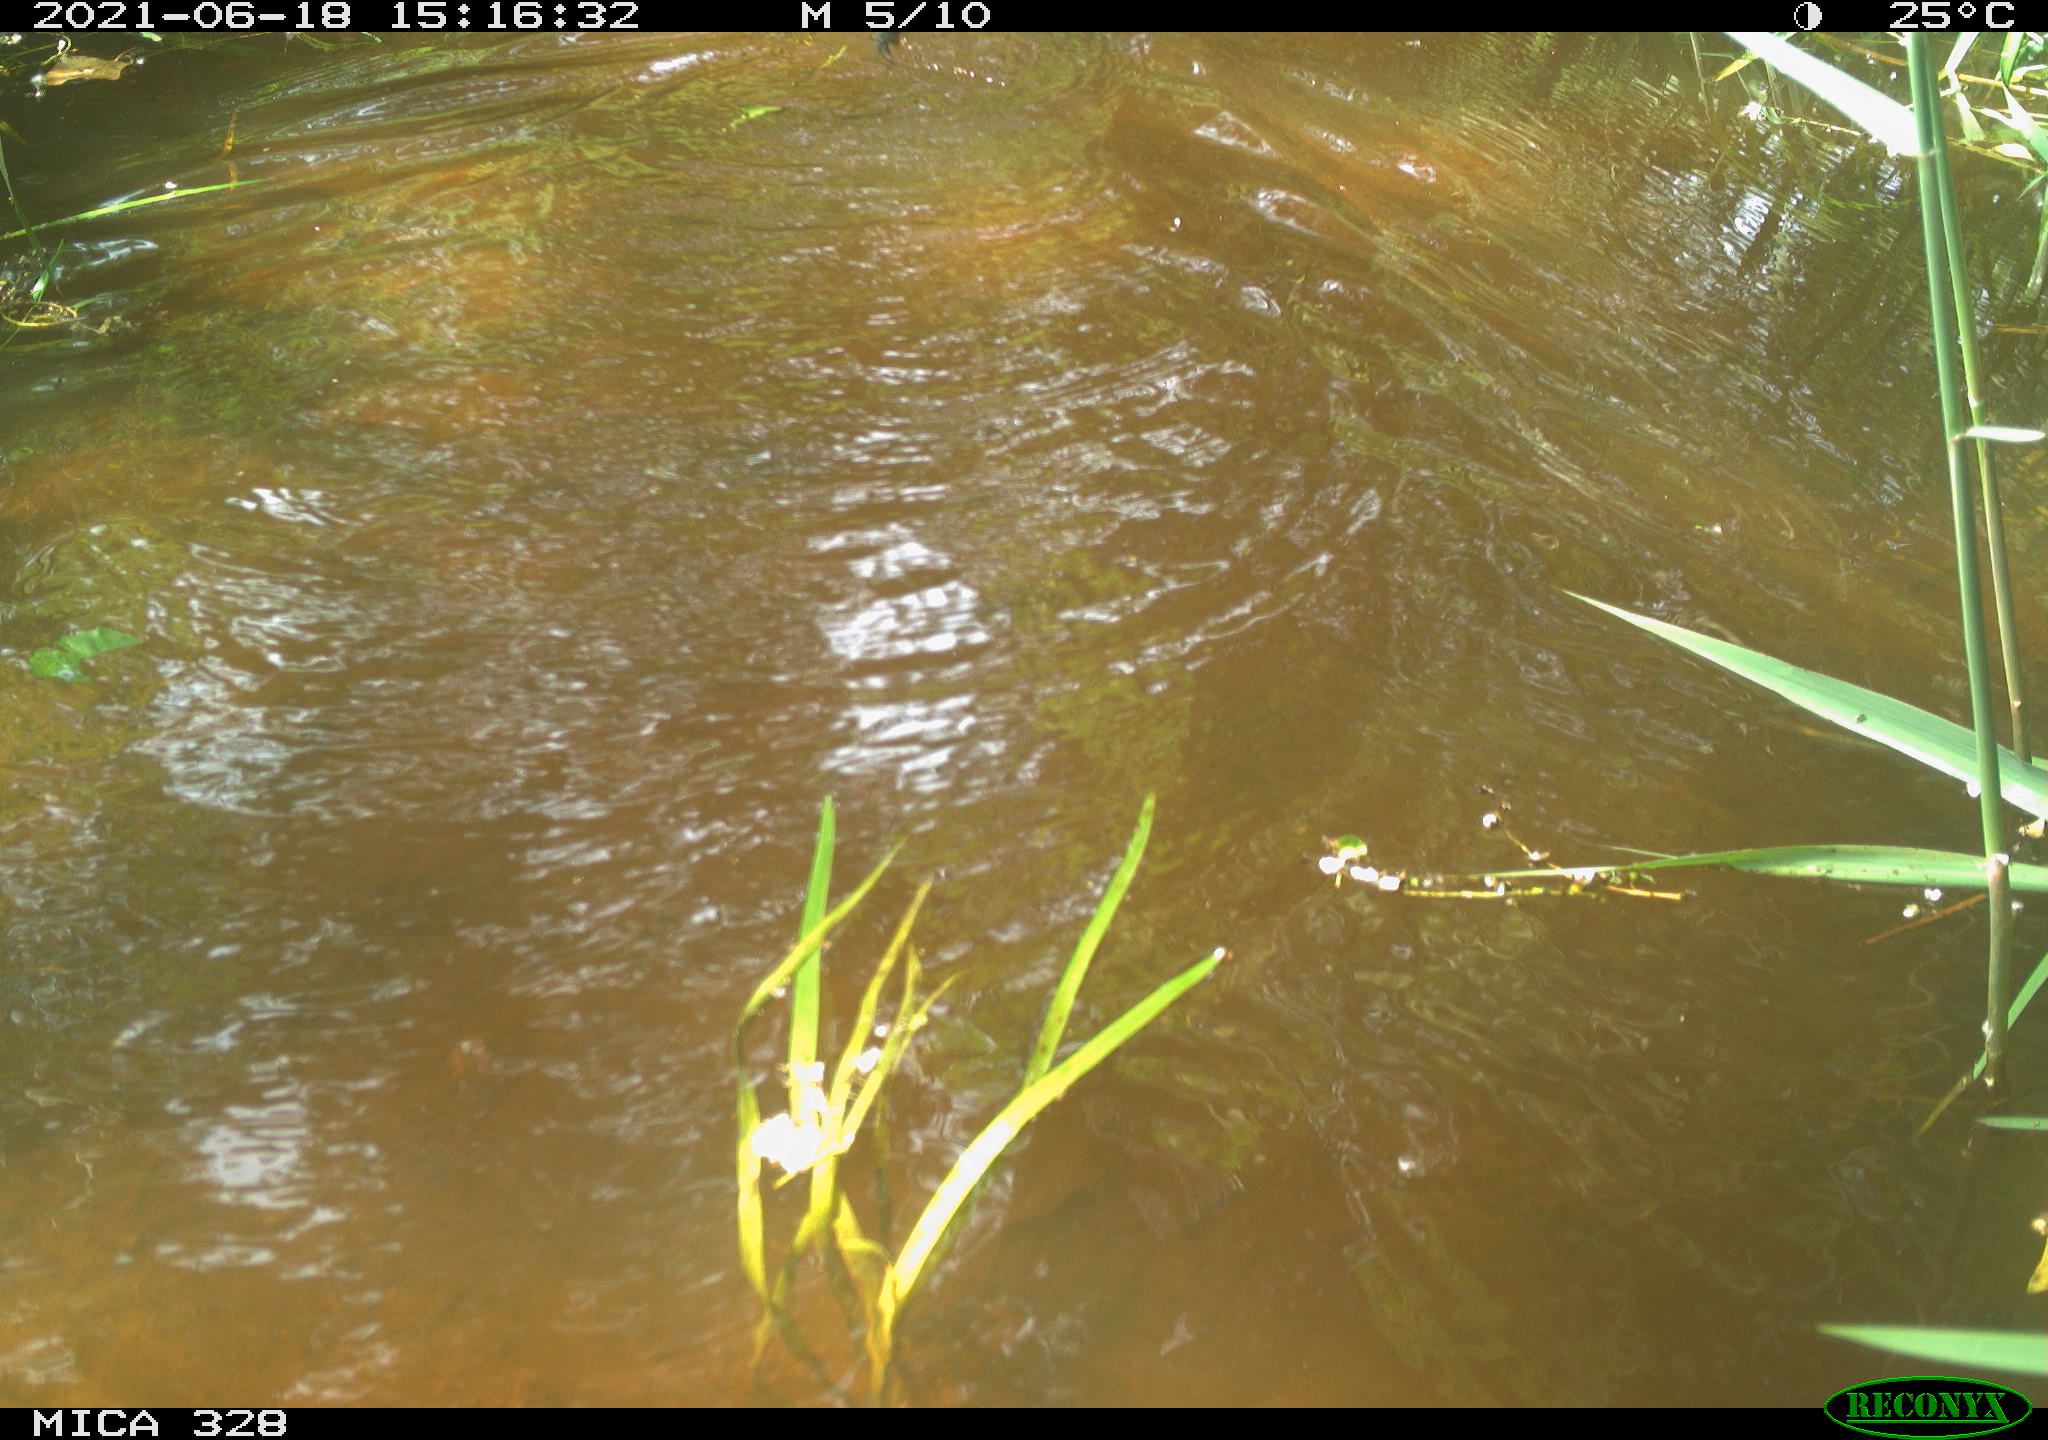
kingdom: Animalia
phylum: Chordata
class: Aves
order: Anseriformes
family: Anatidae
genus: Aix
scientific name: Aix galericulata
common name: Mandarin duck
